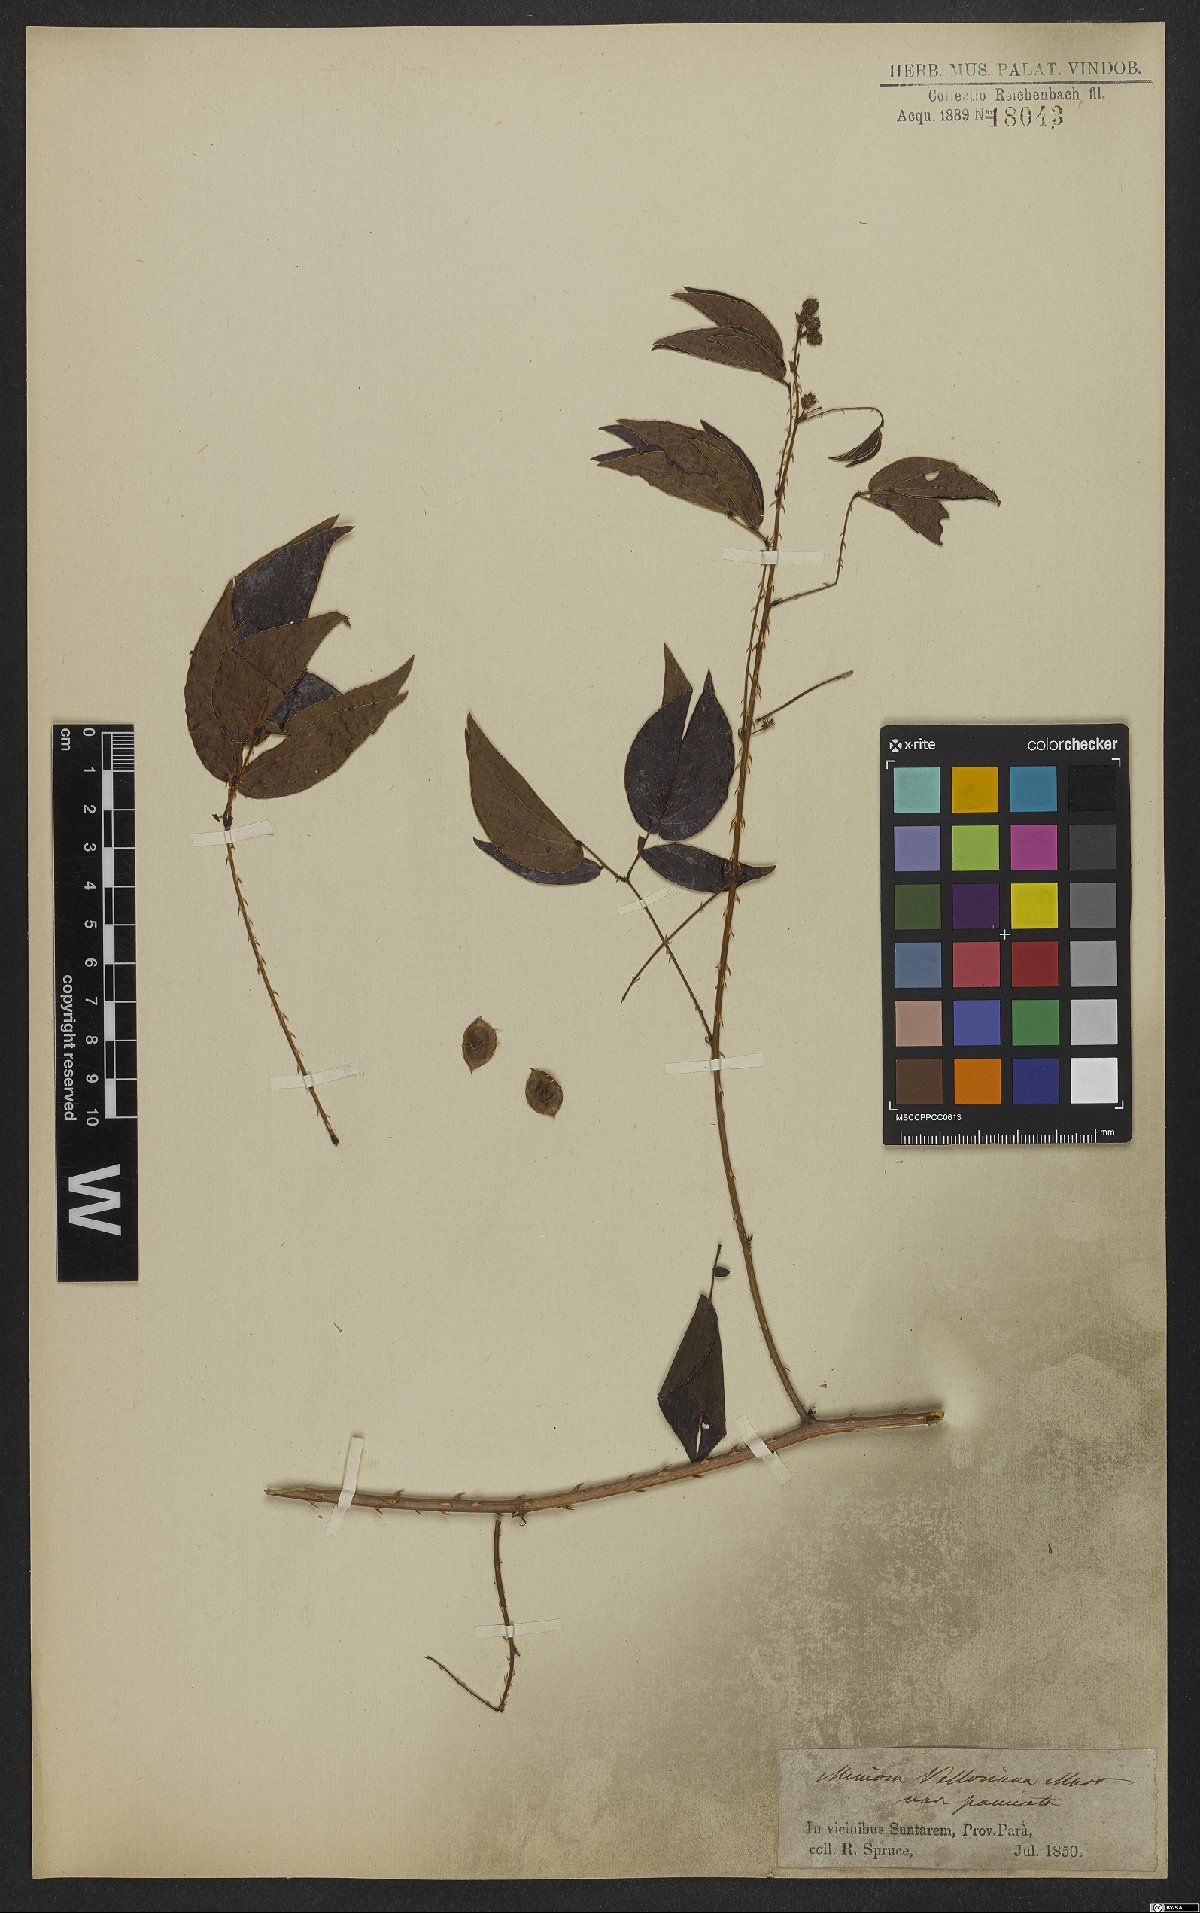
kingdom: Plantae
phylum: Tracheophyta
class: Magnoliopsida
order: Fabales
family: Fabaceae
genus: Mimosa
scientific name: Mimosa velloziana
